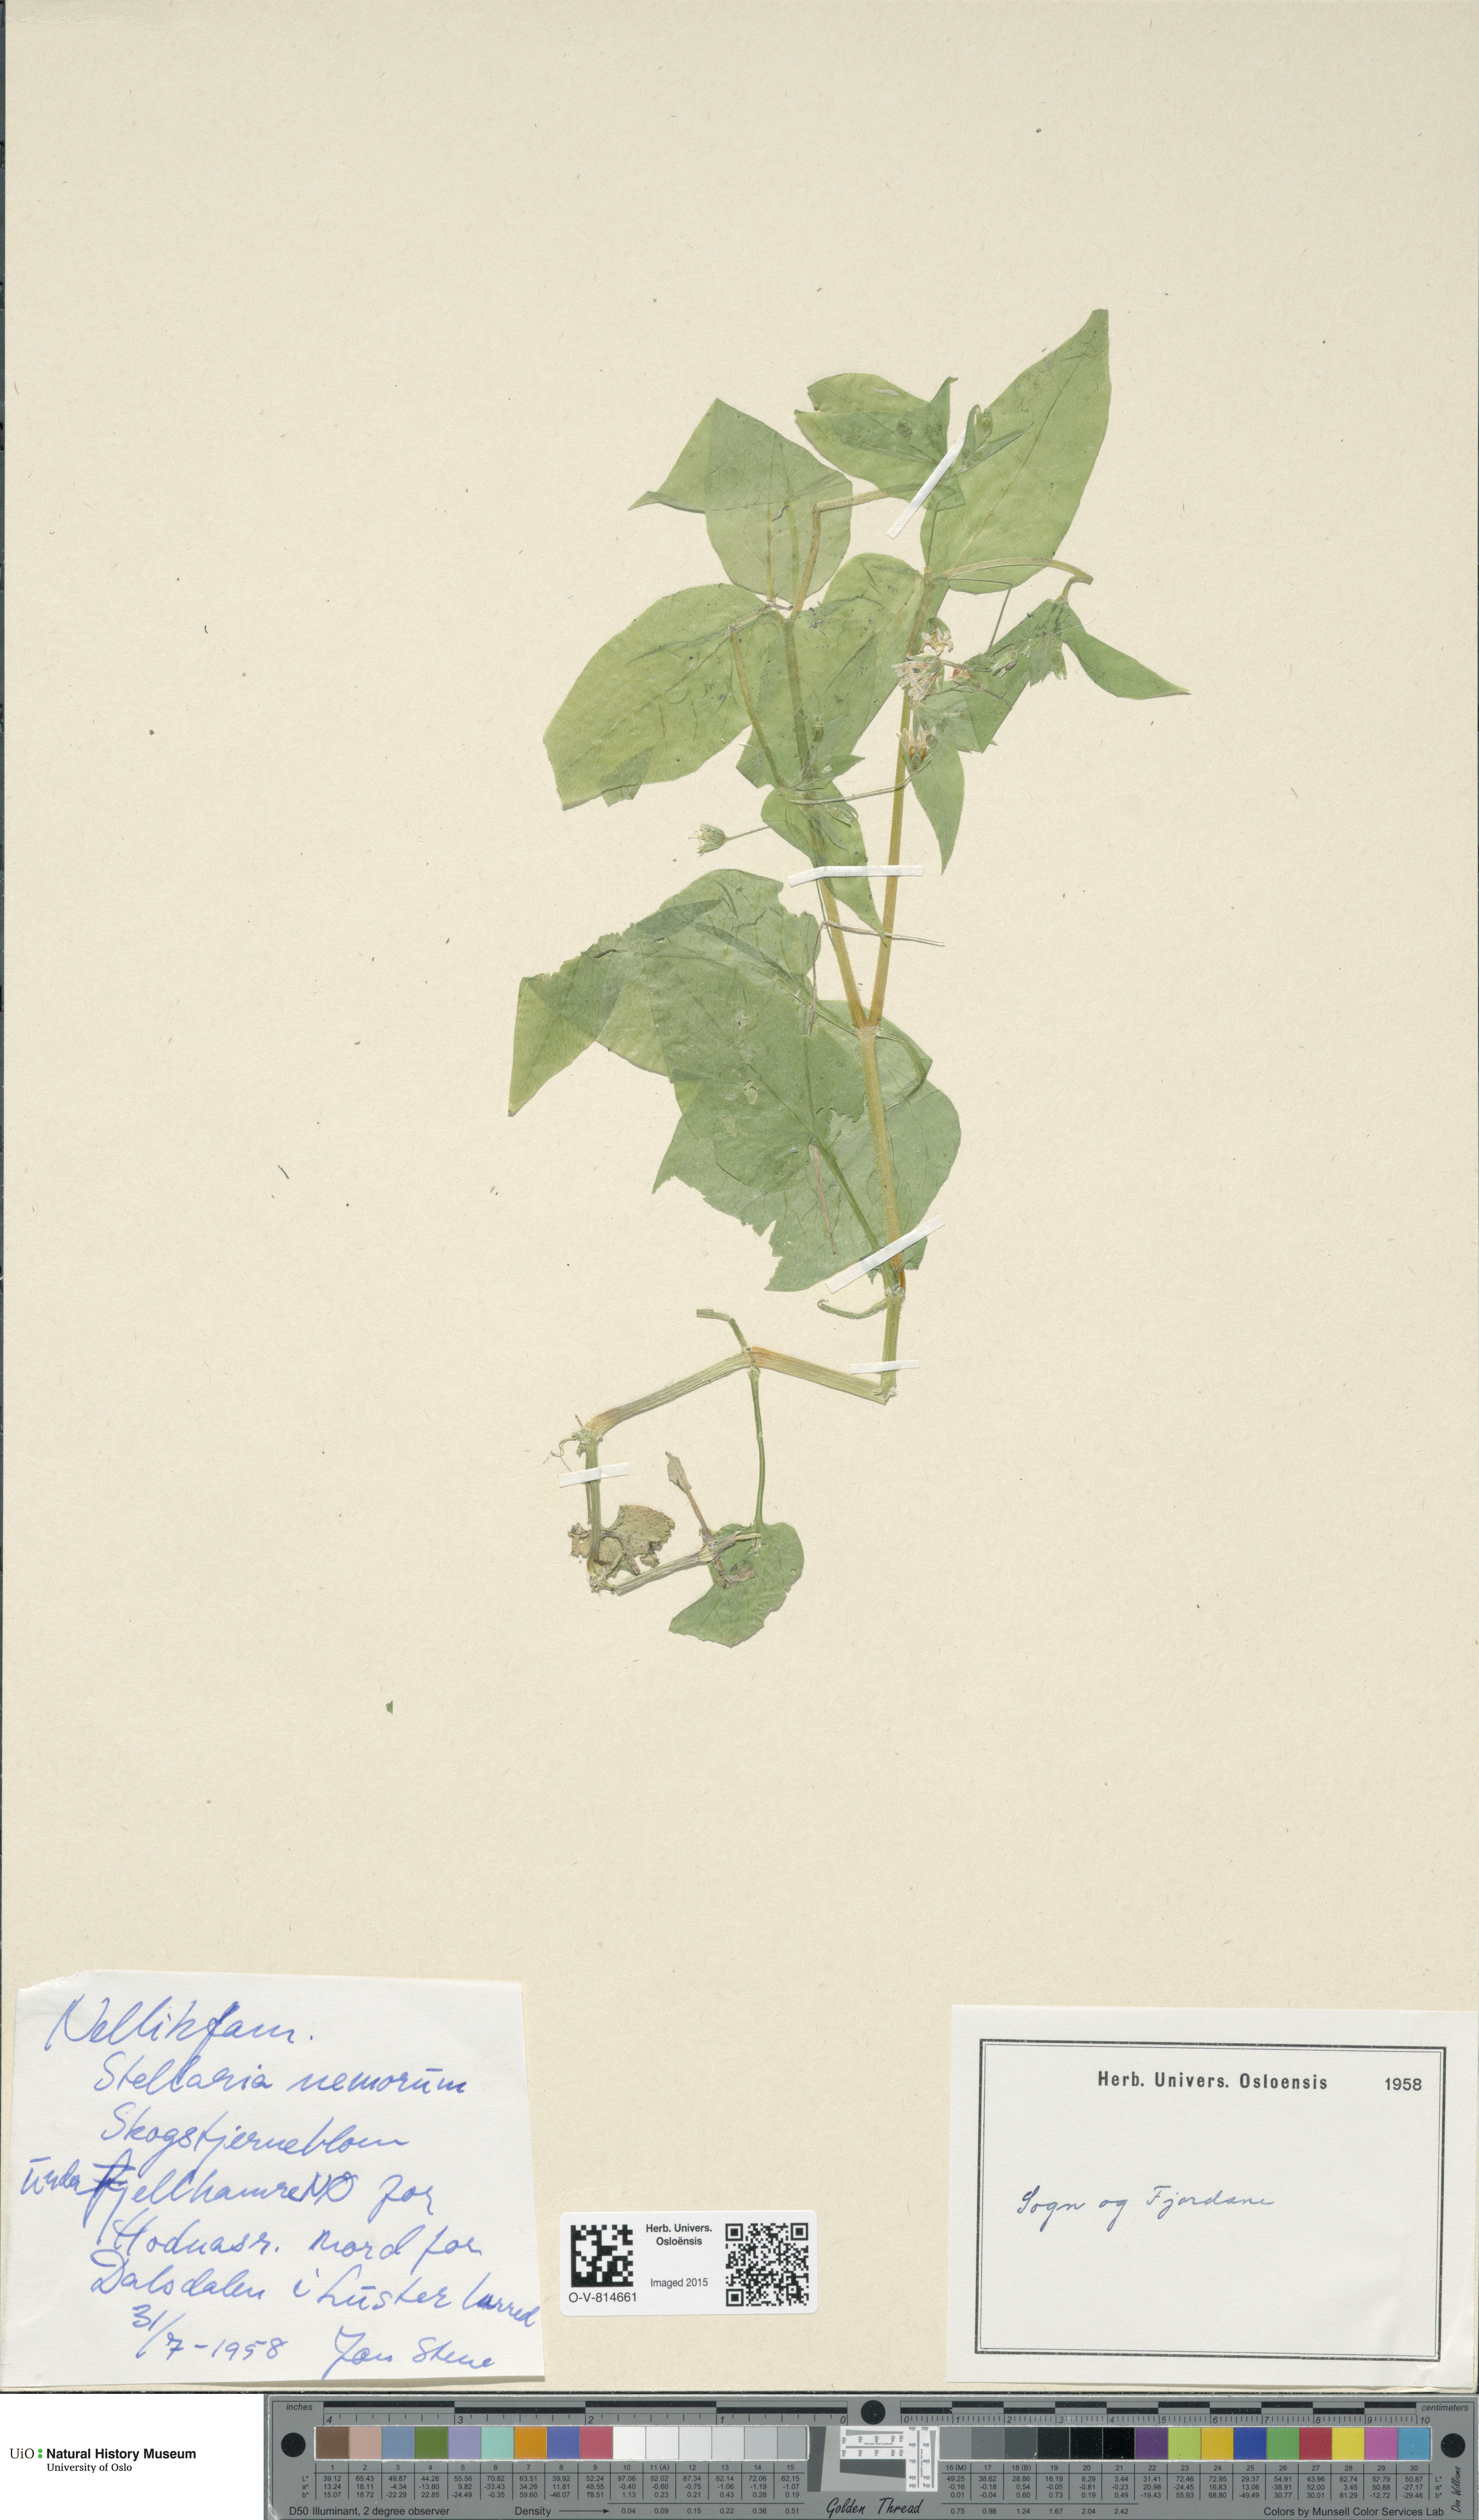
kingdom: Plantae
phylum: Tracheophyta
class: Magnoliopsida
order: Caryophyllales
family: Caryophyllaceae
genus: Stellaria
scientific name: Stellaria nemorum
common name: Wood stitchwort
